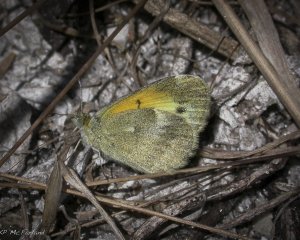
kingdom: Animalia
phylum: Arthropoda
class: Insecta
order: Lepidoptera
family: Pieridae
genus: Nathalis
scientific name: Nathalis iole
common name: Dainty Sulphur
